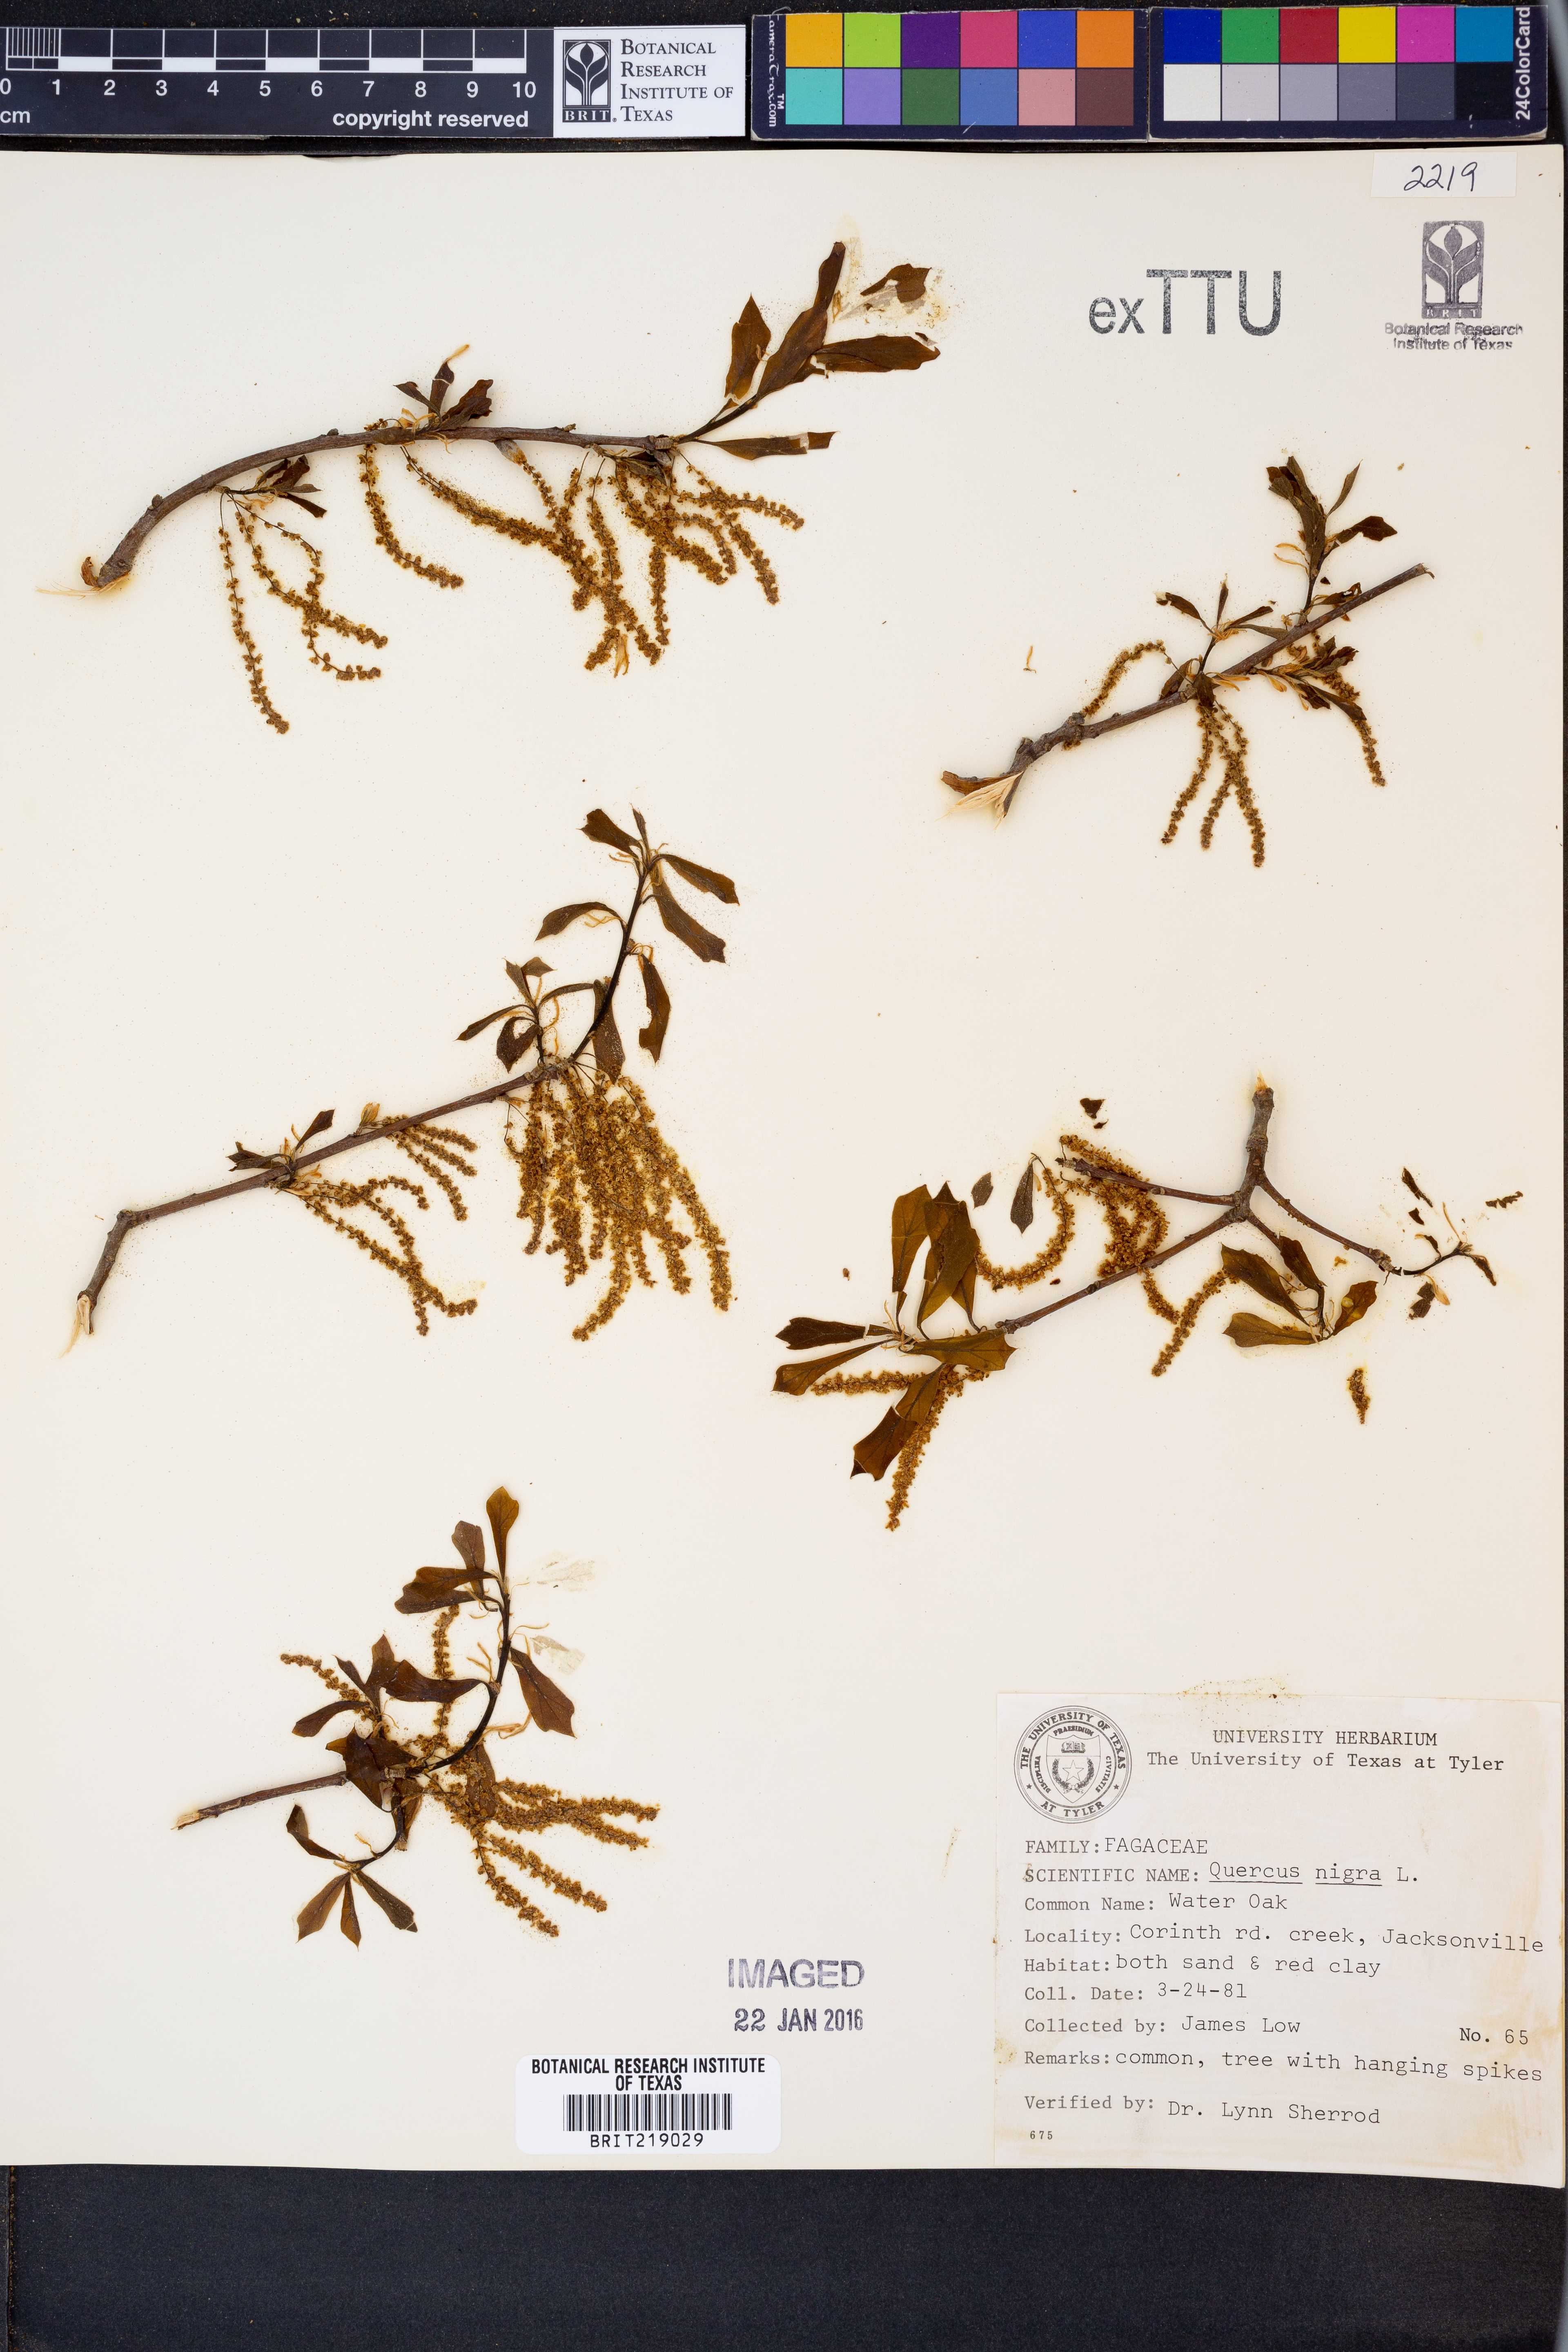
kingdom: Plantae
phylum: Tracheophyta
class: Magnoliopsida
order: Fagales
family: Fagaceae
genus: Quercus
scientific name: Quercus nigra
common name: Water oak
